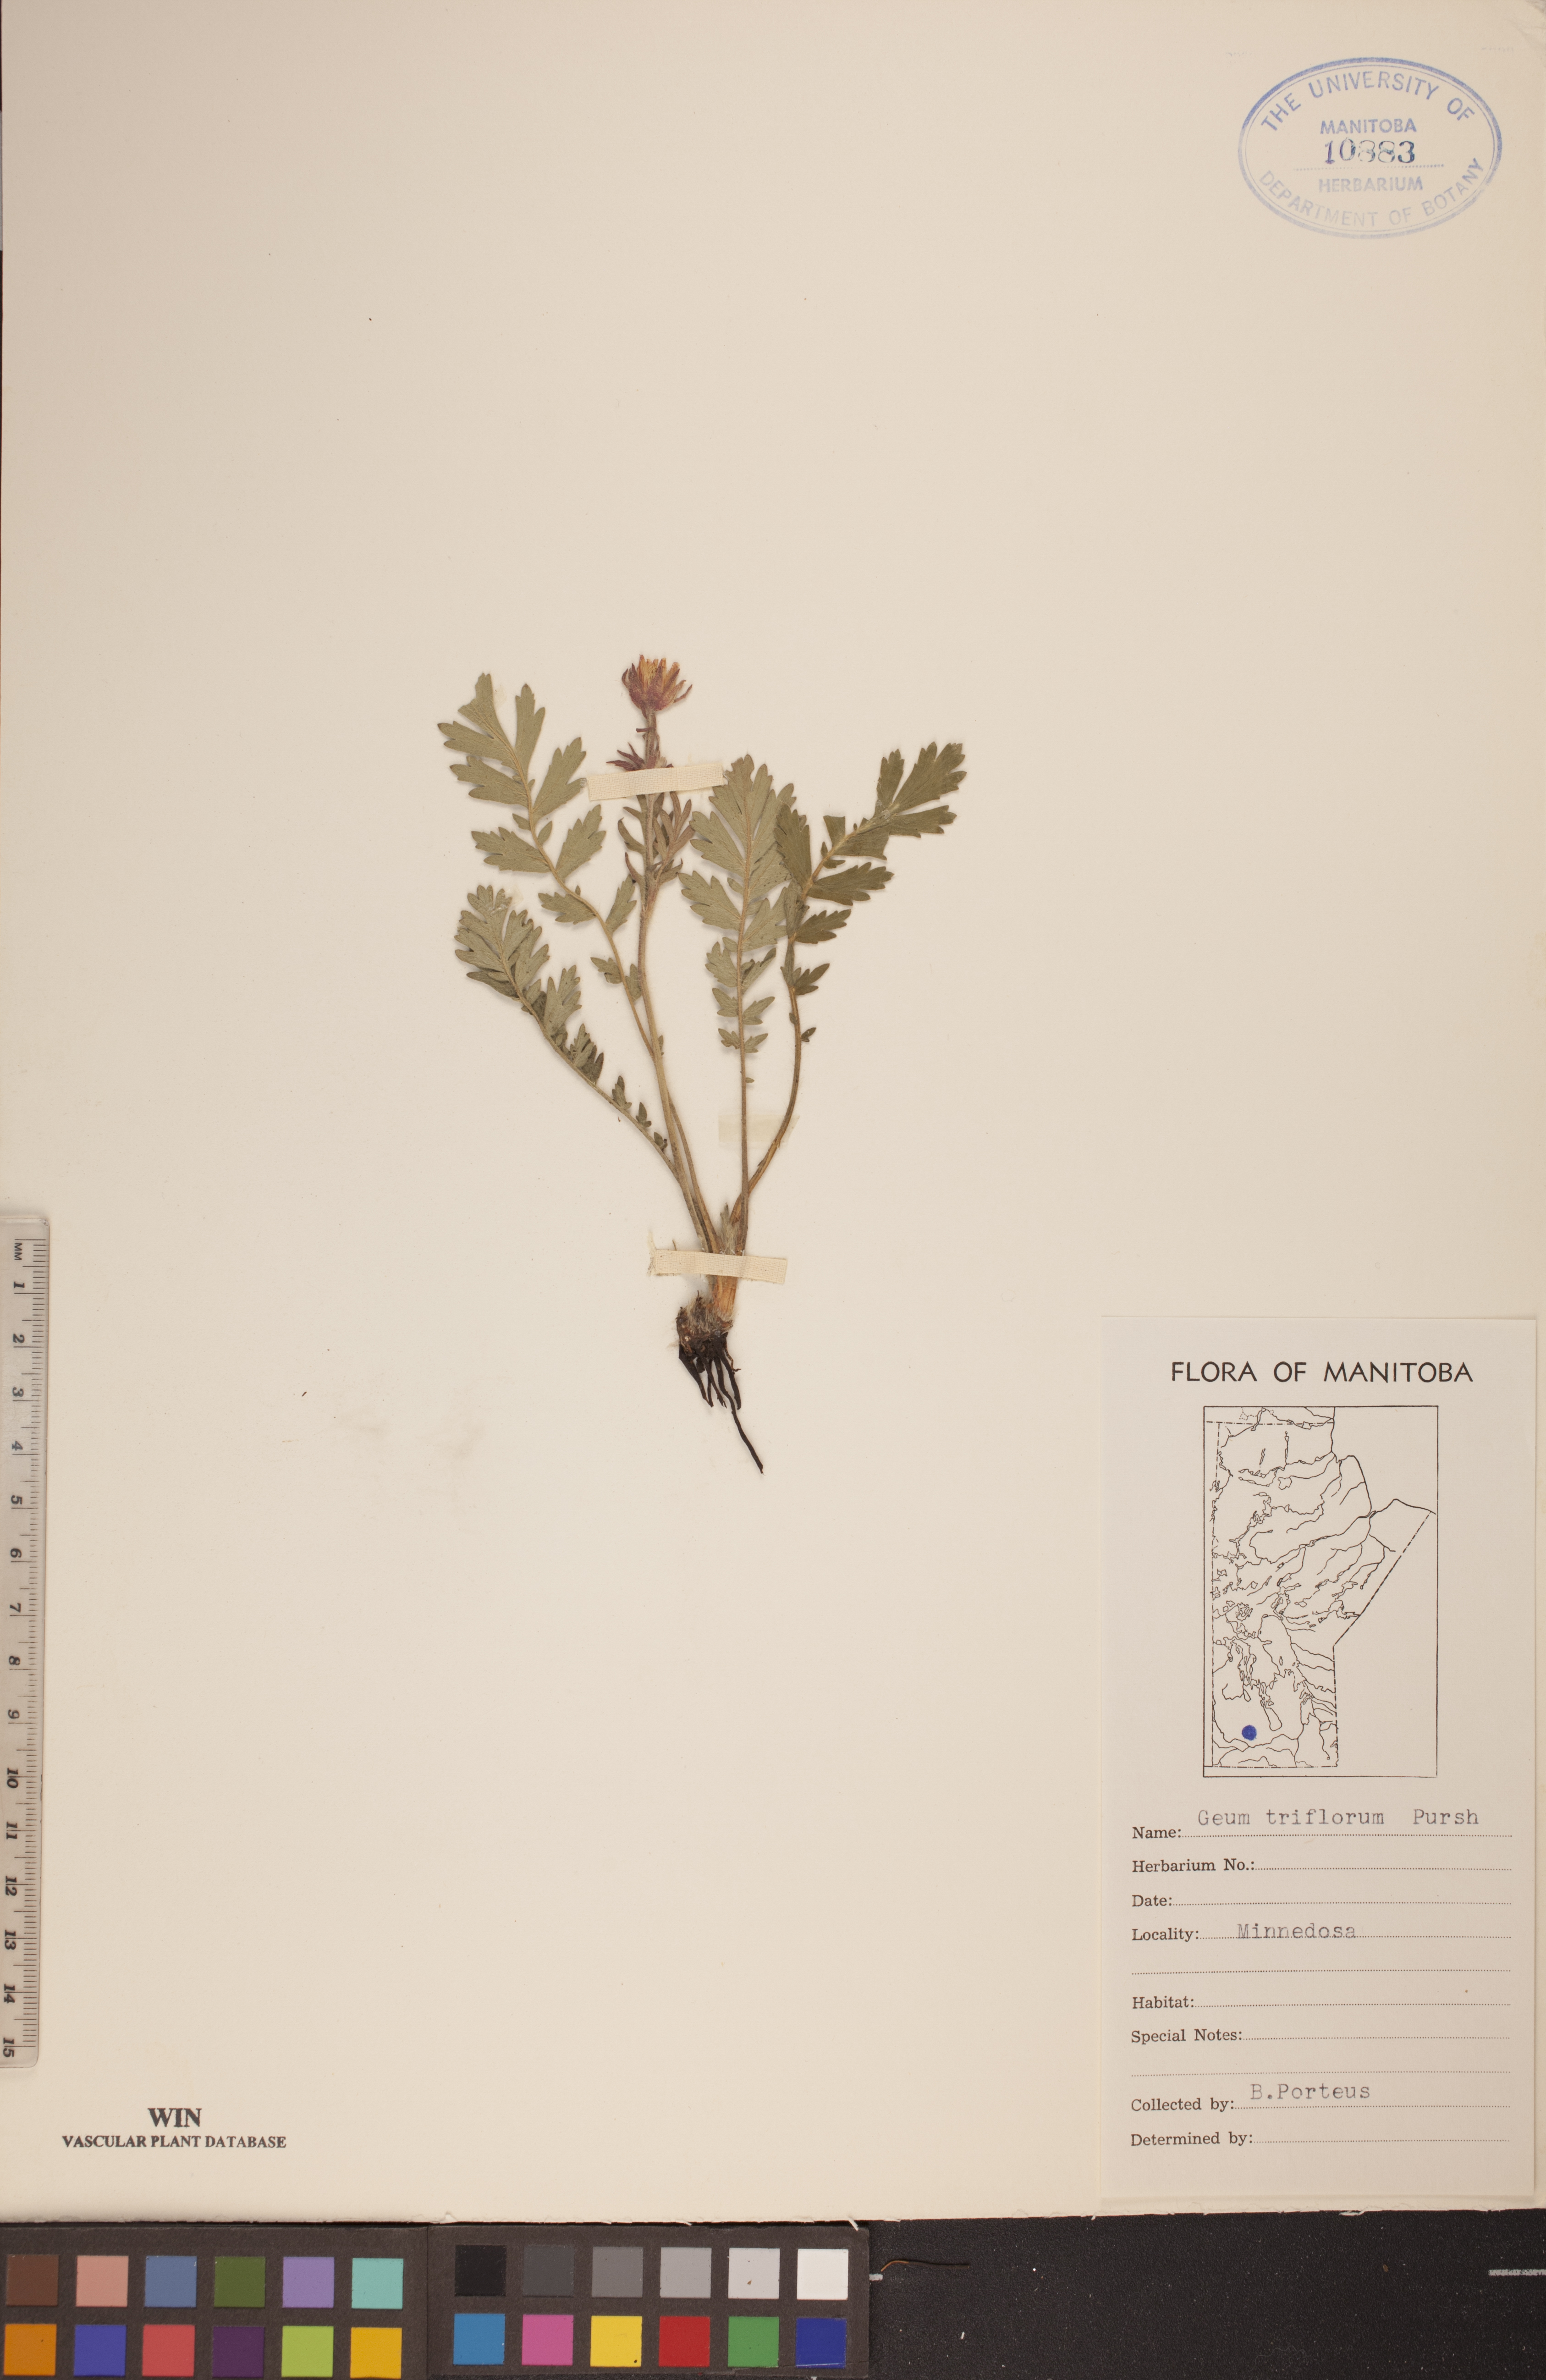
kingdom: Plantae
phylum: Tracheophyta
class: Magnoliopsida
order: Rosales
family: Rosaceae
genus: Geum
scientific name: Geum triflorum
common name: Old man's whiskers
